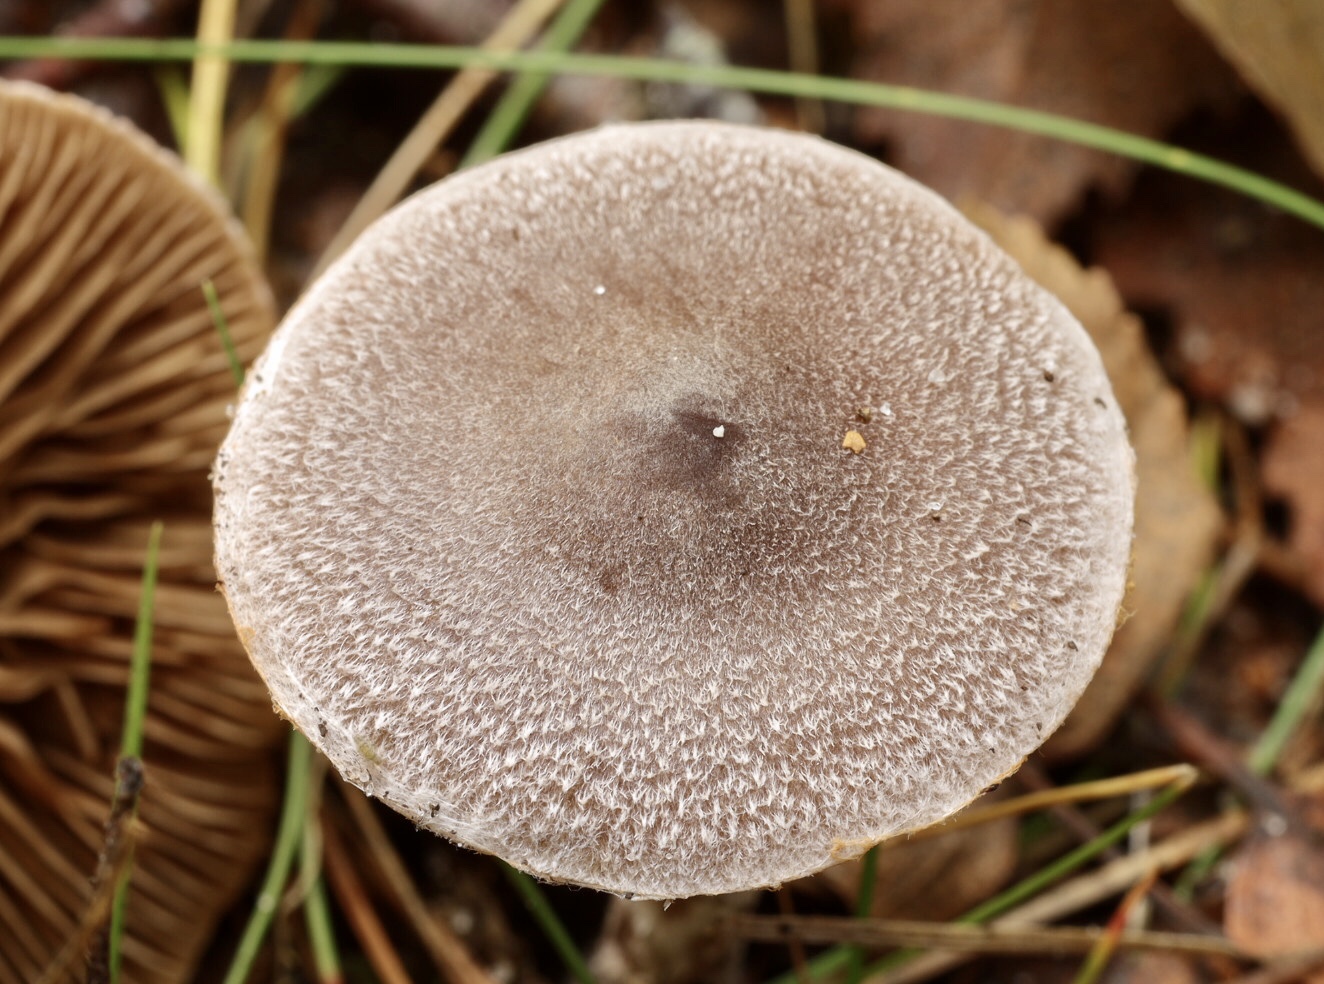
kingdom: Fungi
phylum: Basidiomycota
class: Agaricomycetes
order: Agaricales
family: Cortinariaceae
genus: Cortinarius
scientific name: Cortinarius hemitrichus
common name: hvidfnugget slørhat
